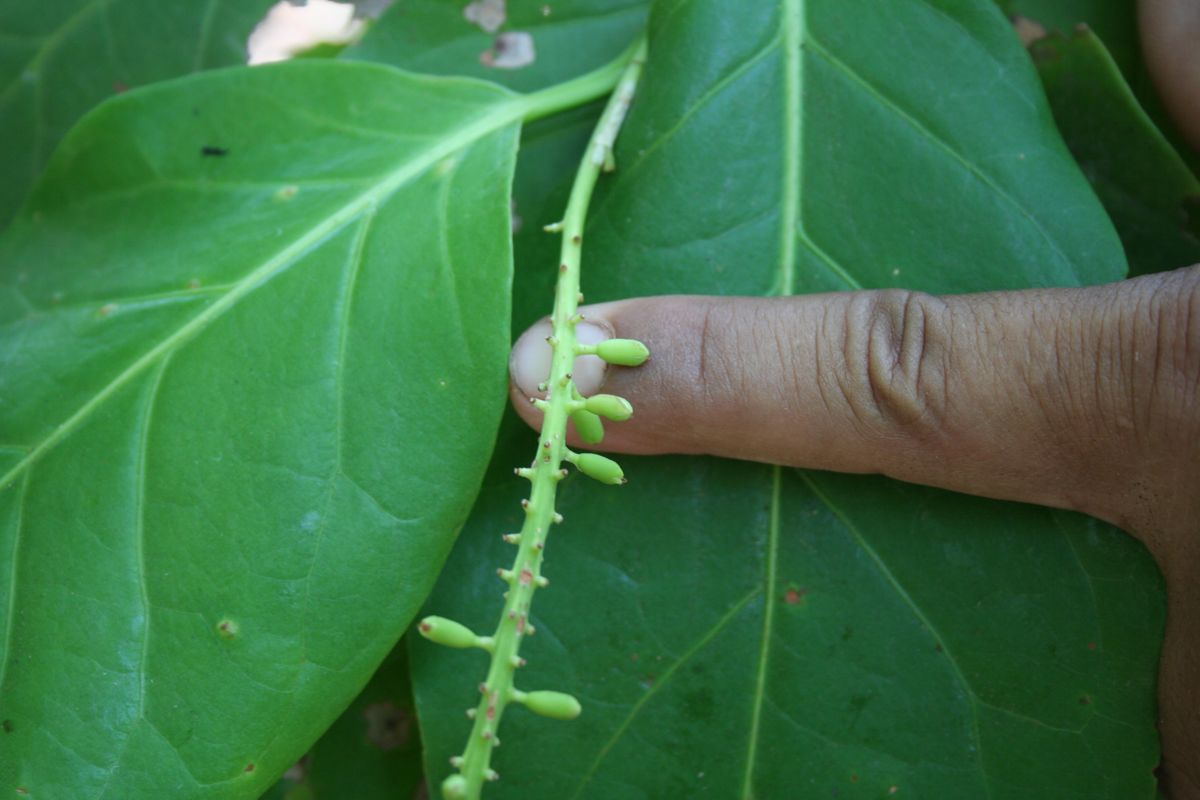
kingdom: Plantae
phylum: Tracheophyta
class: Magnoliopsida
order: Caryophyllales
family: Polygonaceae
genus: Coccoloba
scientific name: Coccoloba
